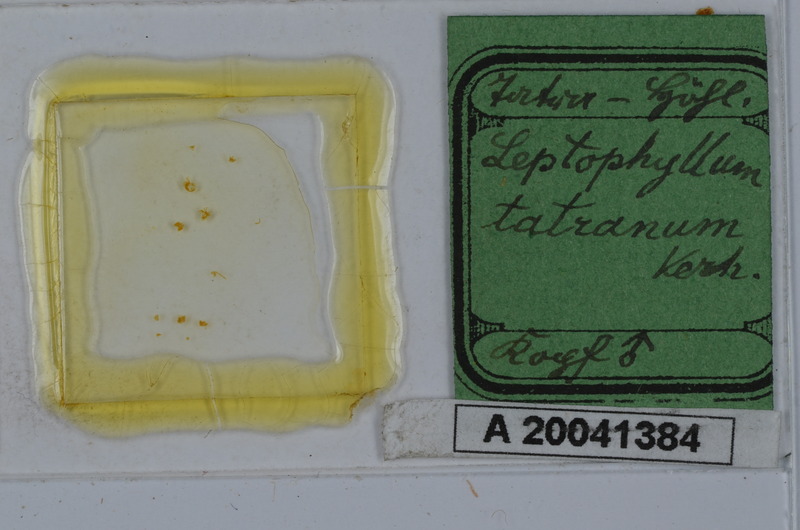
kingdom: Animalia
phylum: Arthropoda
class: Diplopoda
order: Julida
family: Julidae
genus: Enantiulus
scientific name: Enantiulus tatranus
